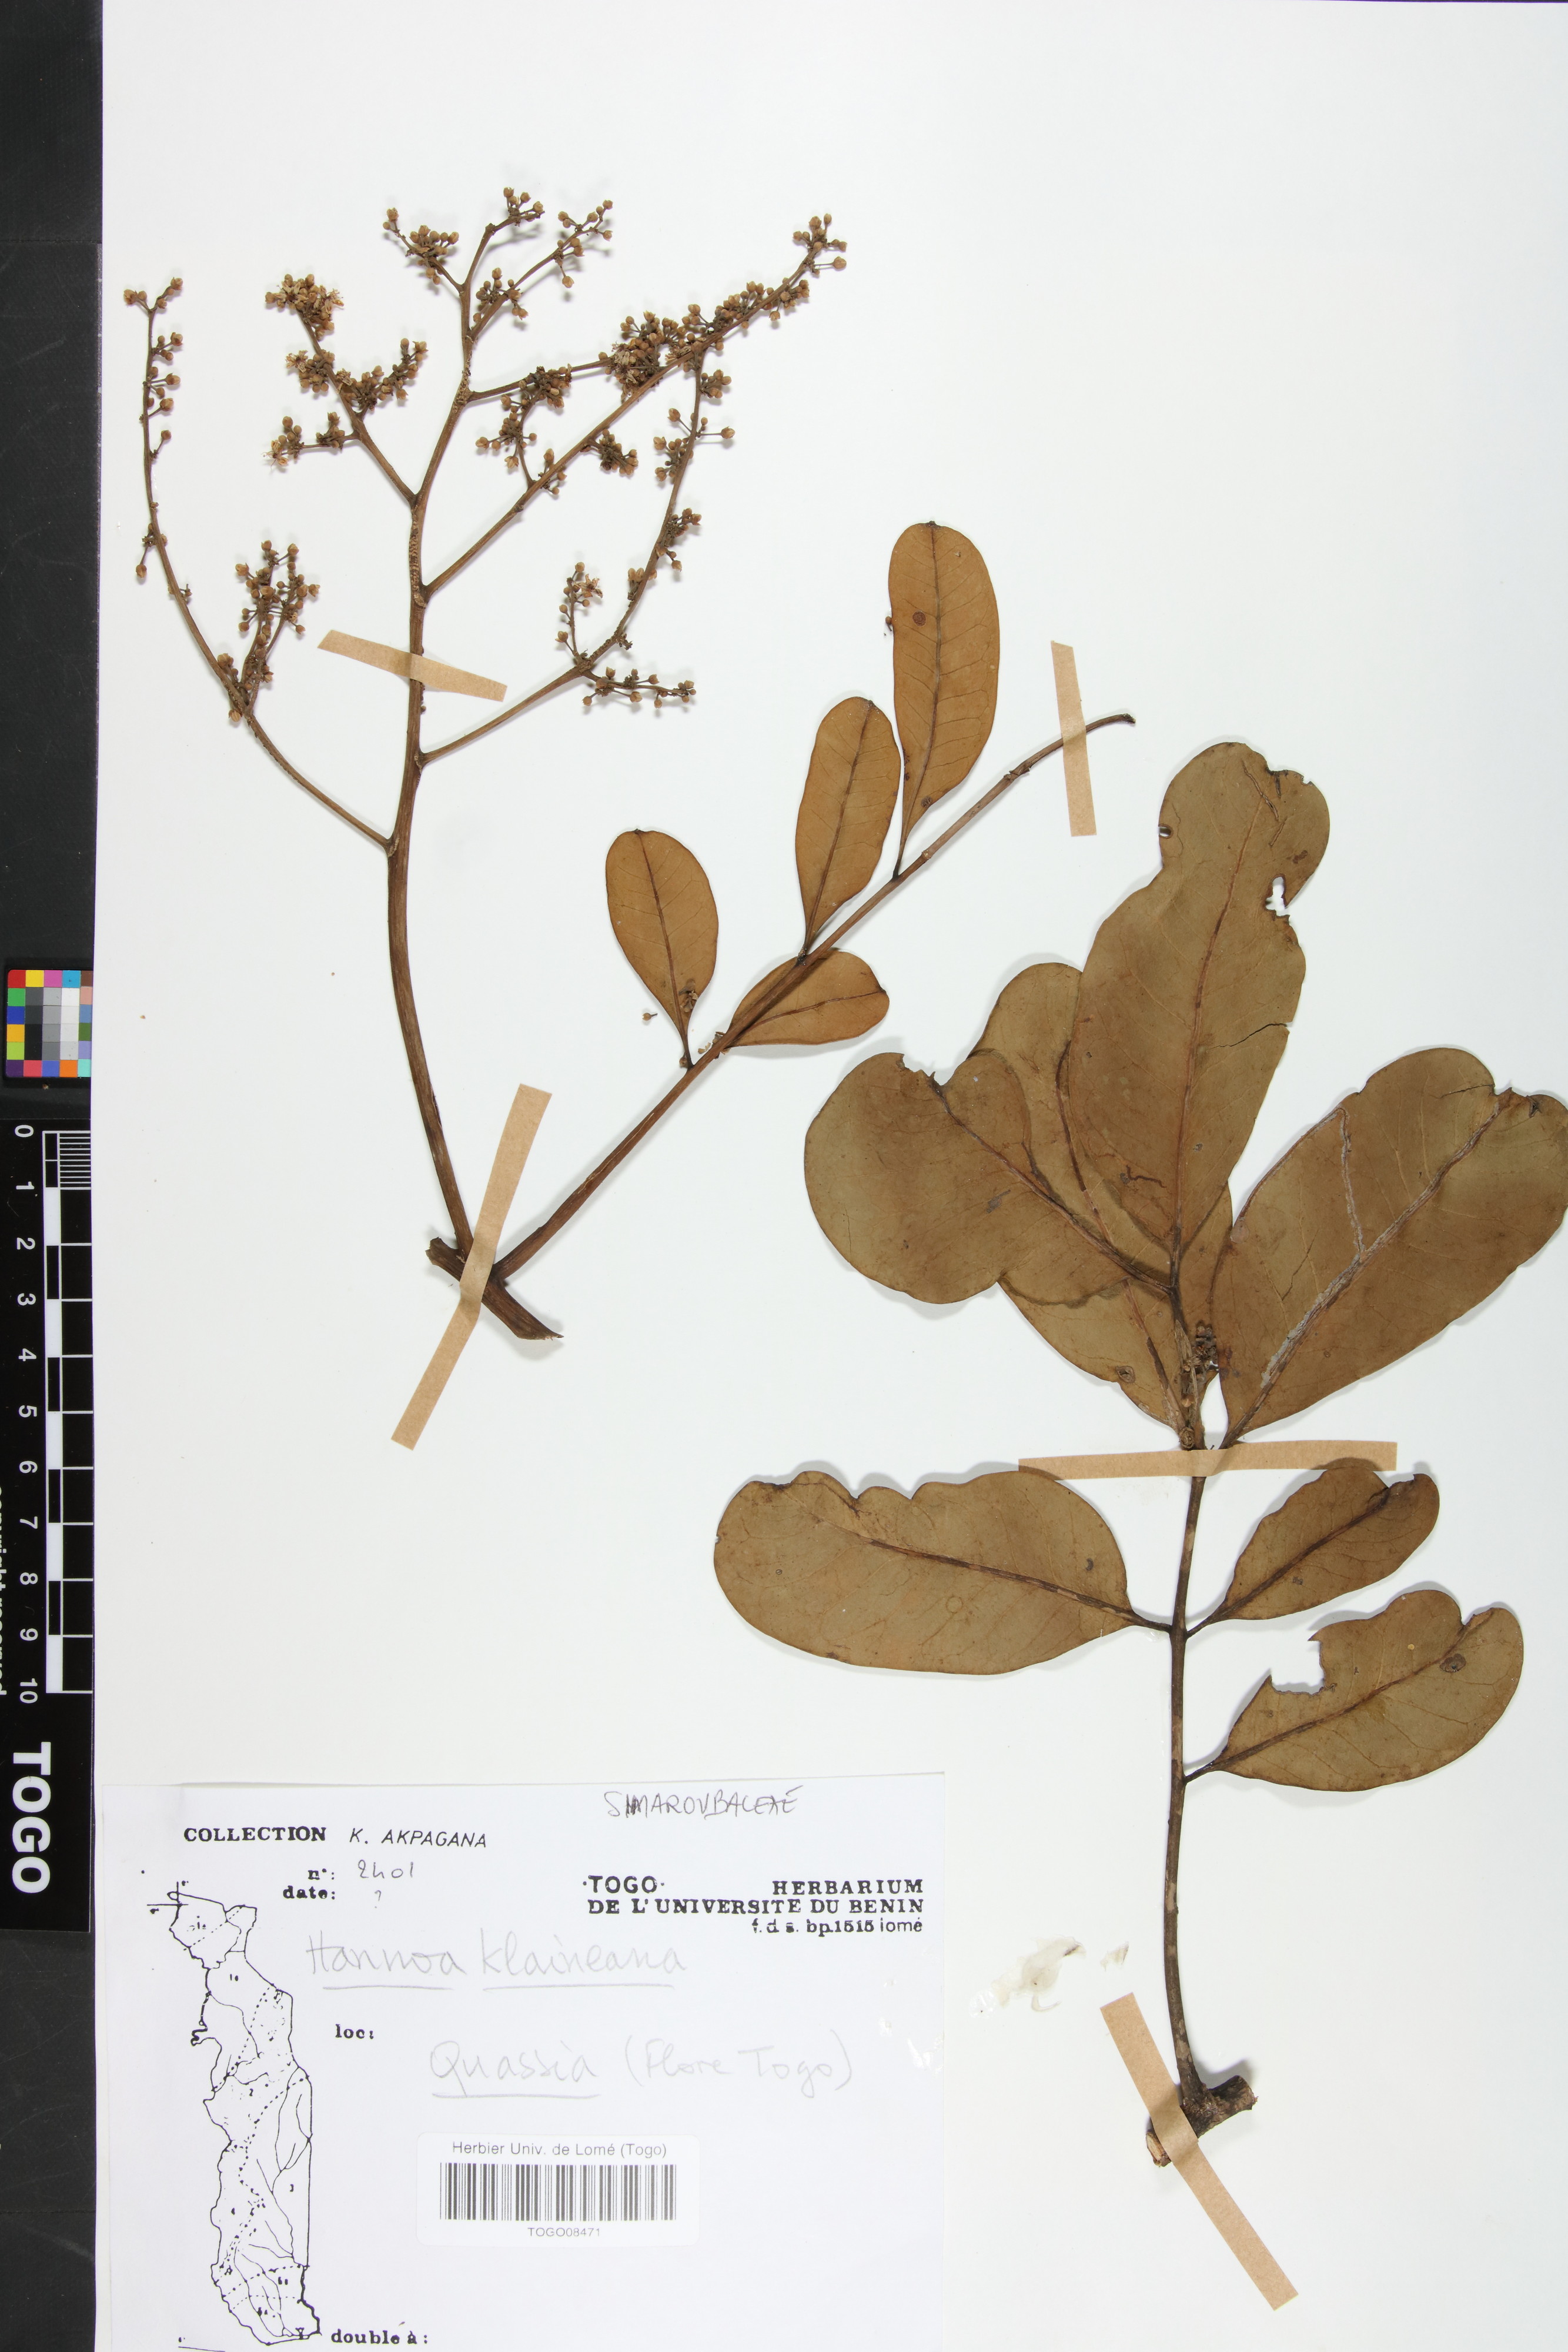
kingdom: Plantae
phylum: Tracheophyta
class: Magnoliopsida
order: Sapindales
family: Simaroubaceae
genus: Odyendyea
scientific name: Odyendyea klaineana
